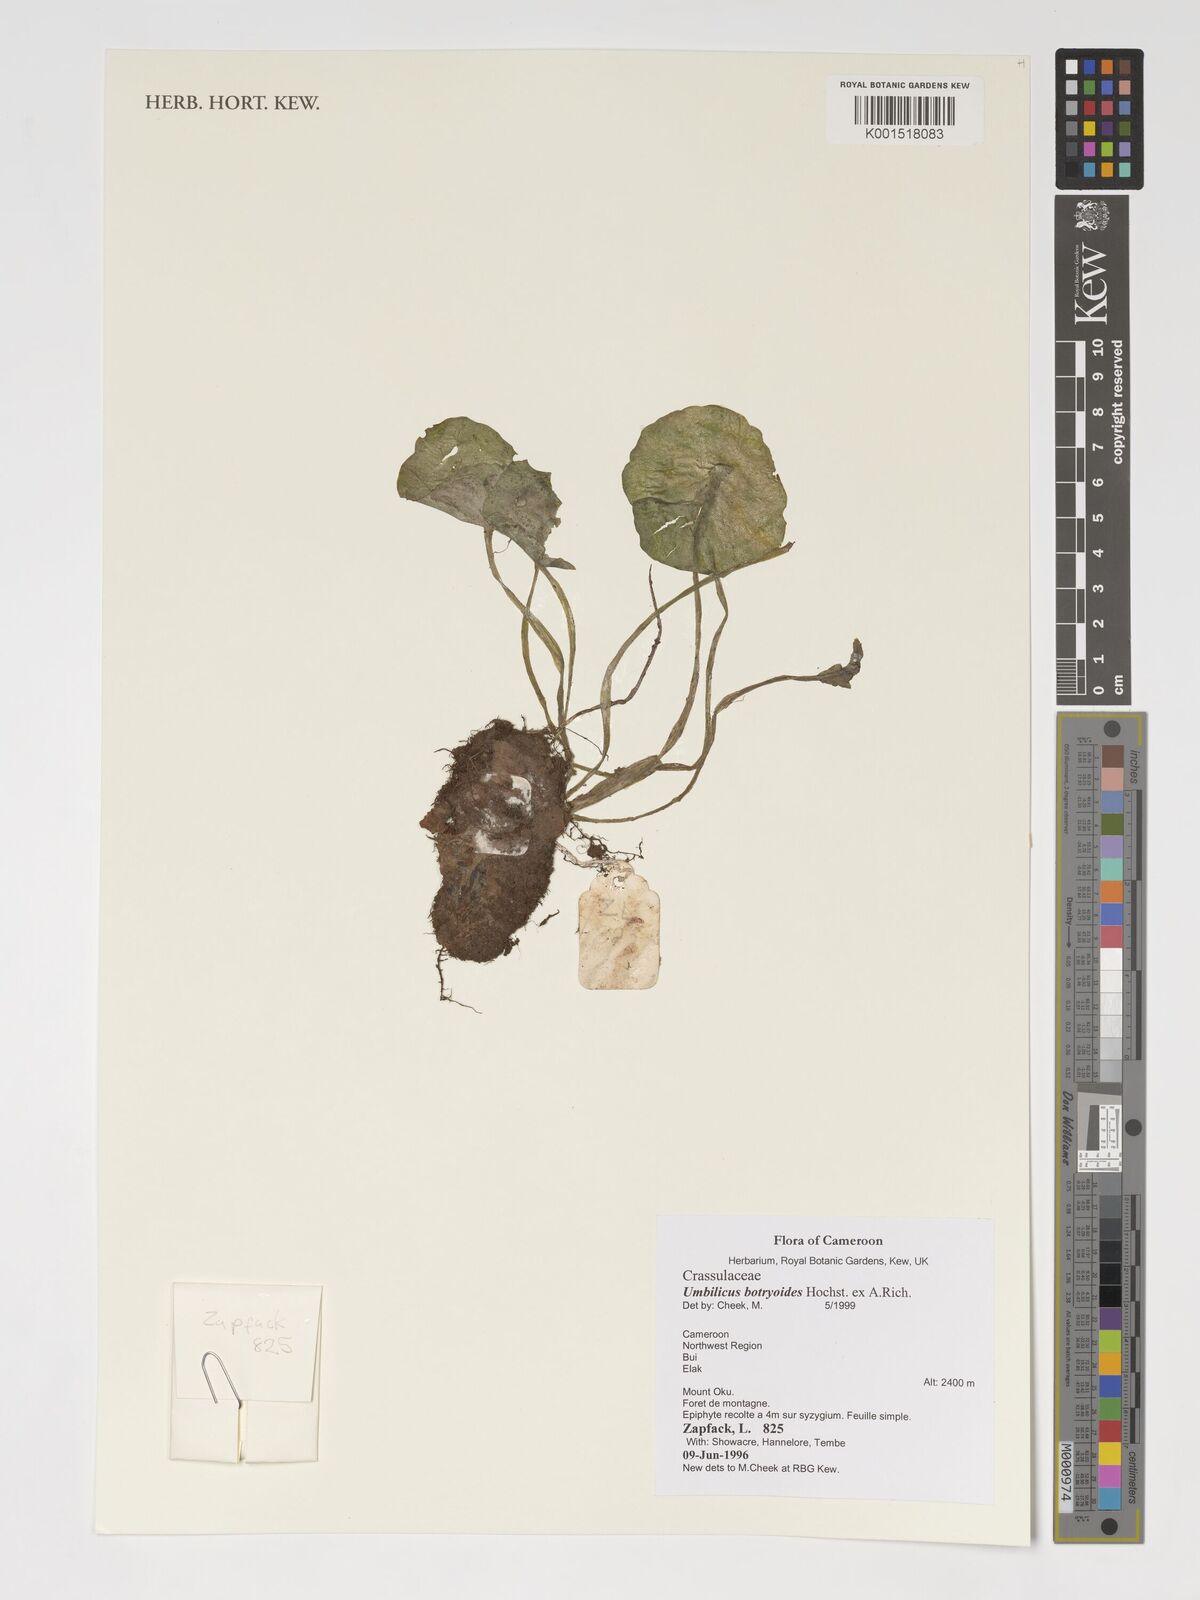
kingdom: Plantae
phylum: Tracheophyta
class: Magnoliopsida
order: Saxifragales
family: Crassulaceae
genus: Umbilicus
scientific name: Umbilicus botryoides
